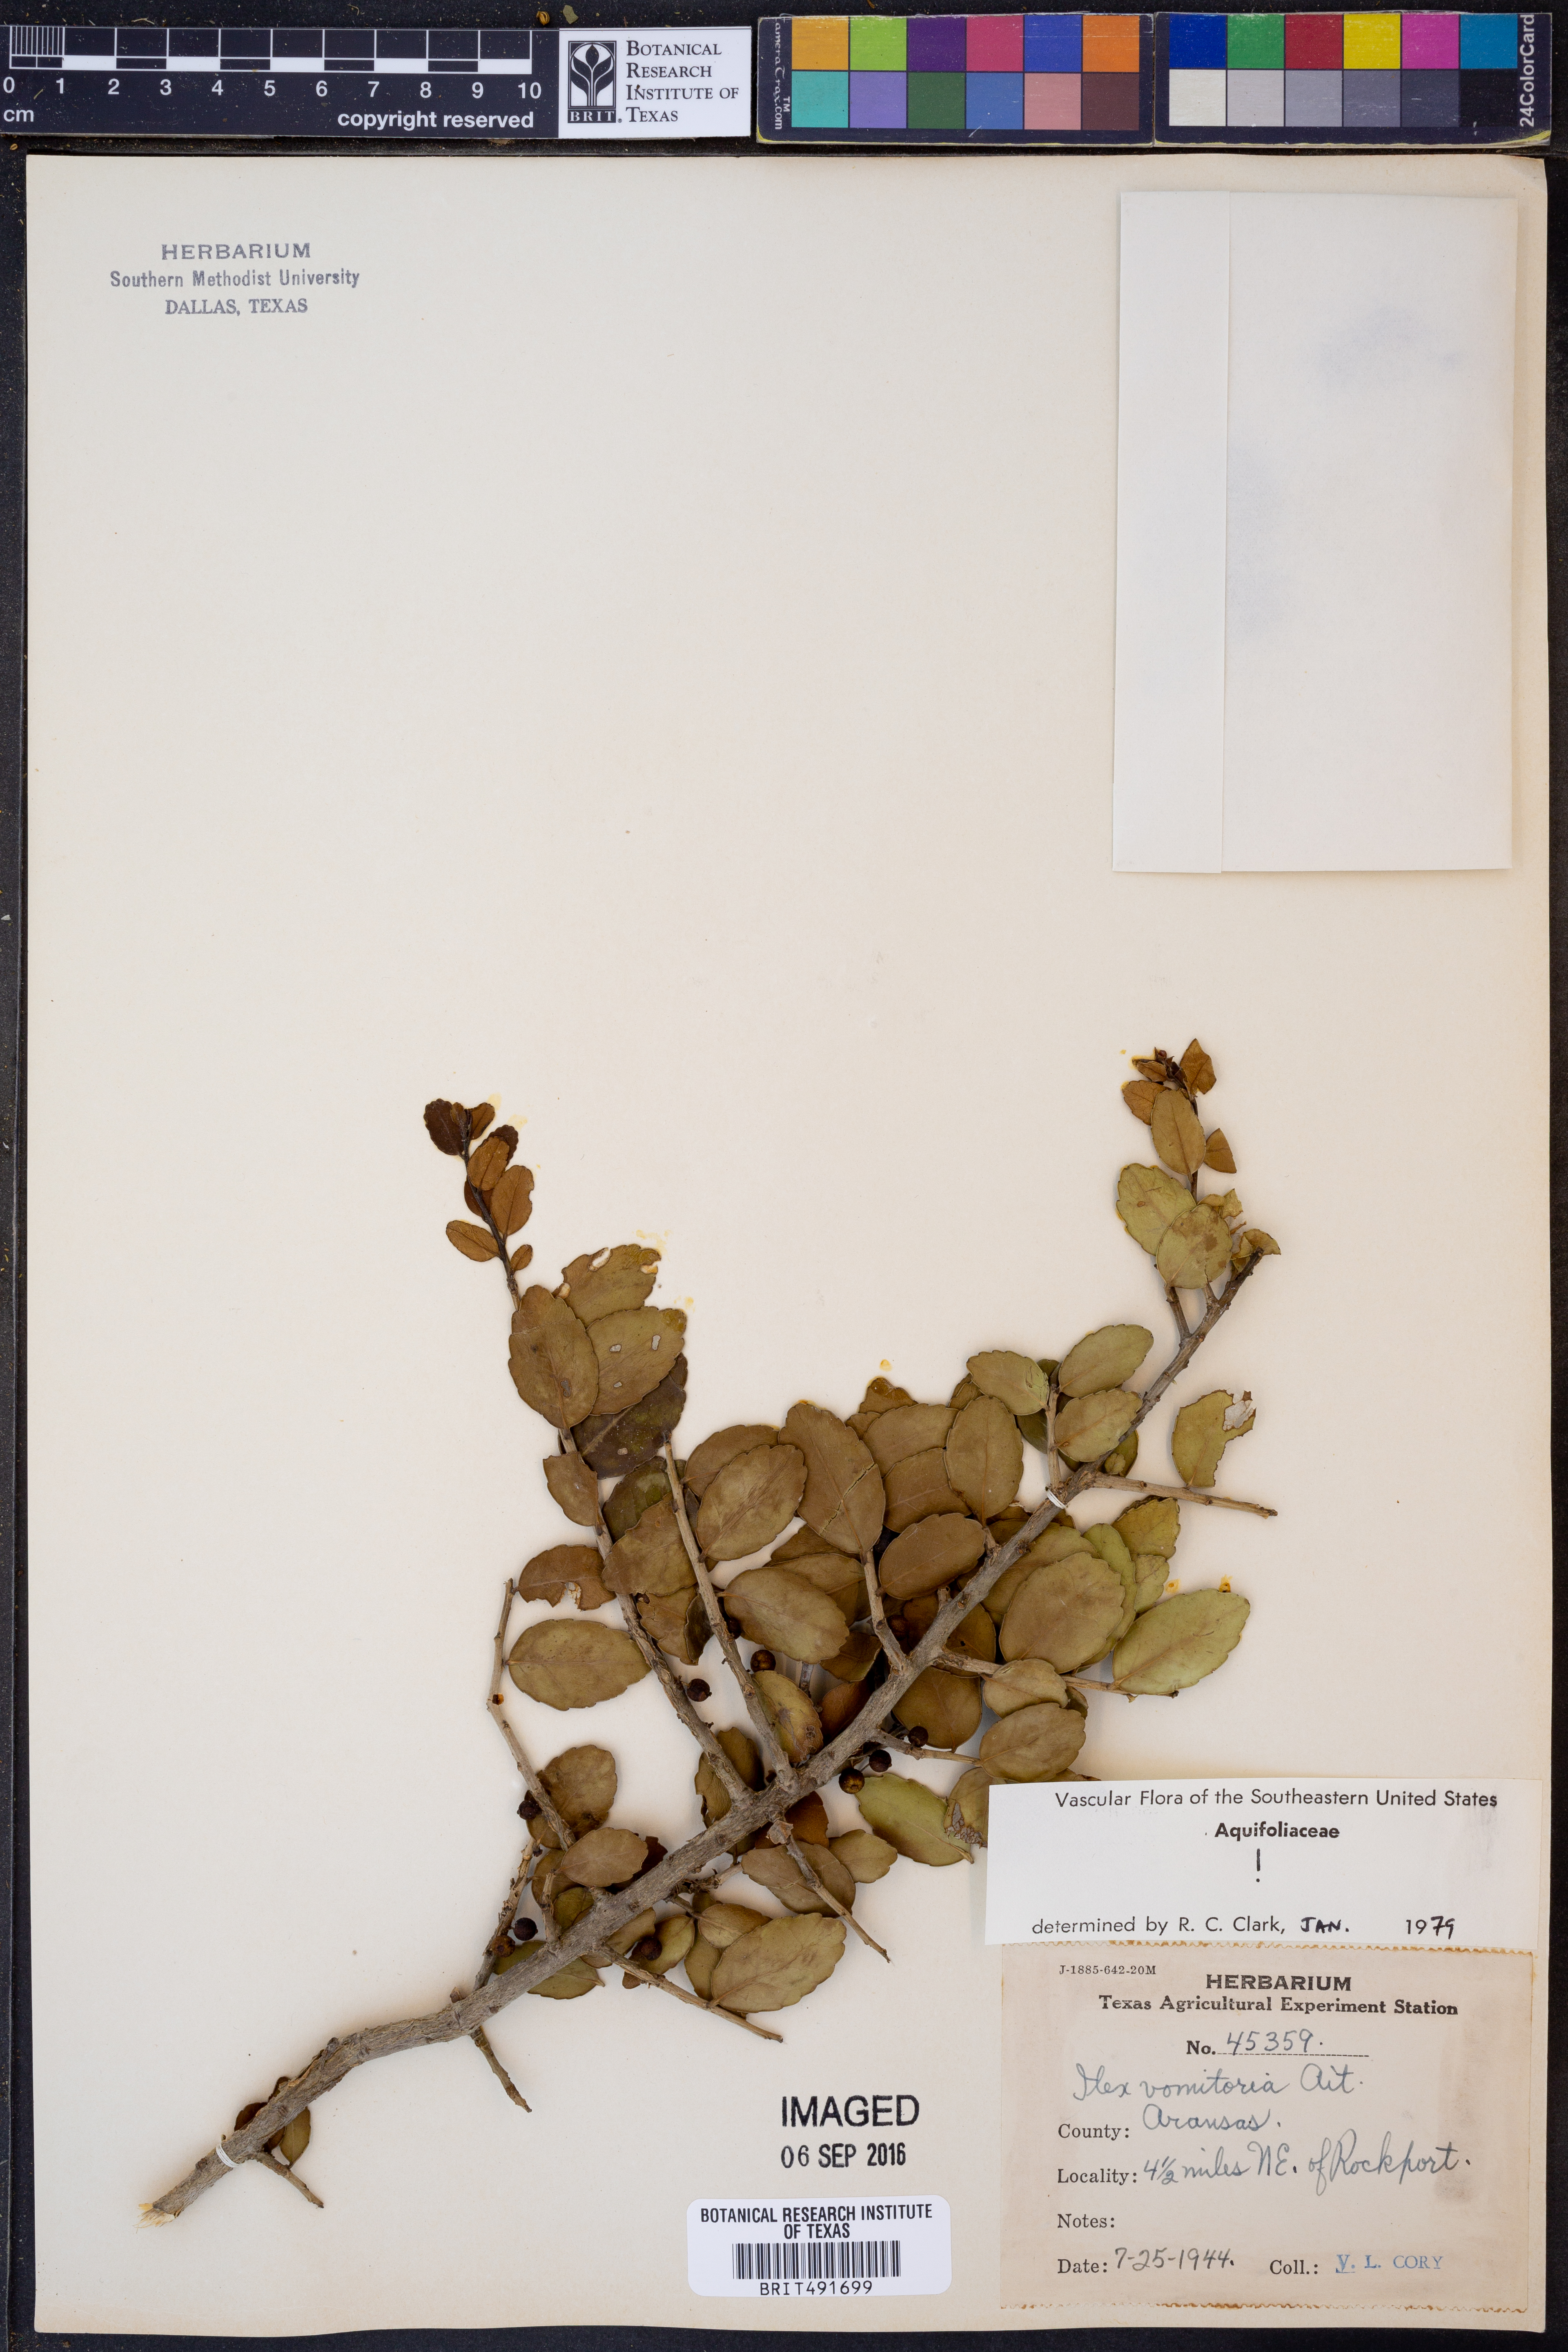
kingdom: Plantae
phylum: Tracheophyta
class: Magnoliopsida
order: Aquifoliales
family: Aquifoliaceae
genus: Ilex
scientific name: Ilex vomitoria
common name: Yaupon holly
